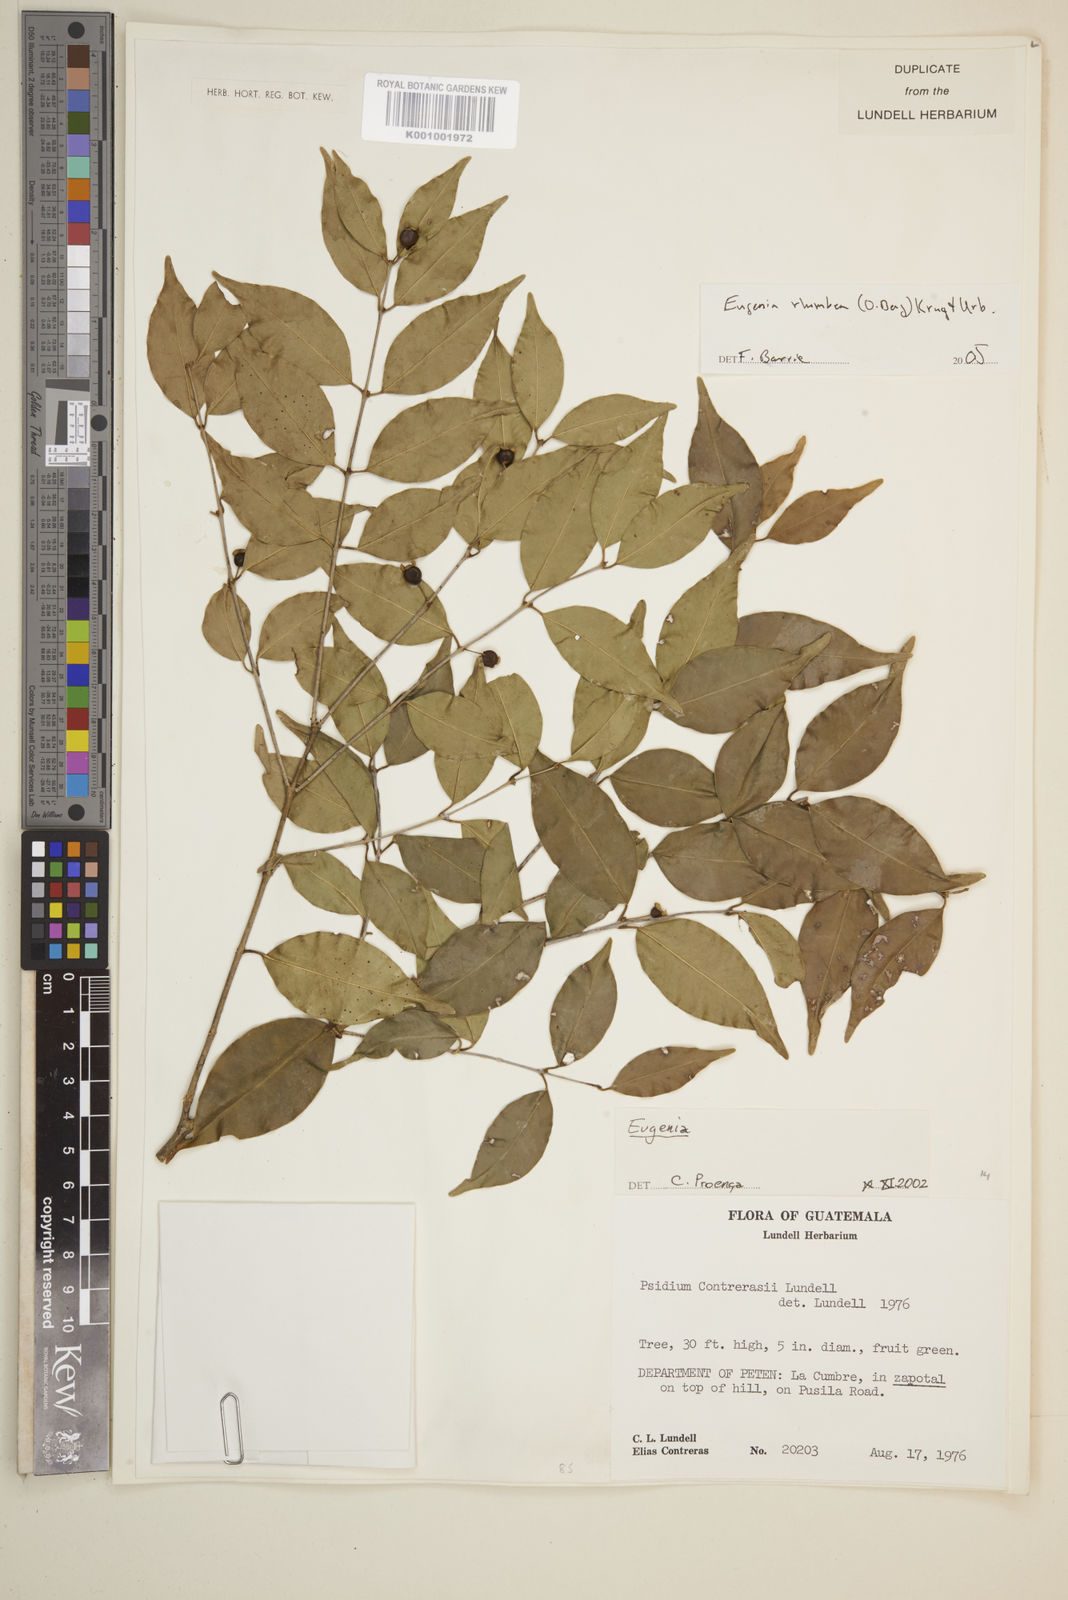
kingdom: Plantae
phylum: Tracheophyta
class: Magnoliopsida
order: Myrtales
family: Myrtaceae
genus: Eugenia
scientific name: Eugenia rhombea
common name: Pigeon berry
